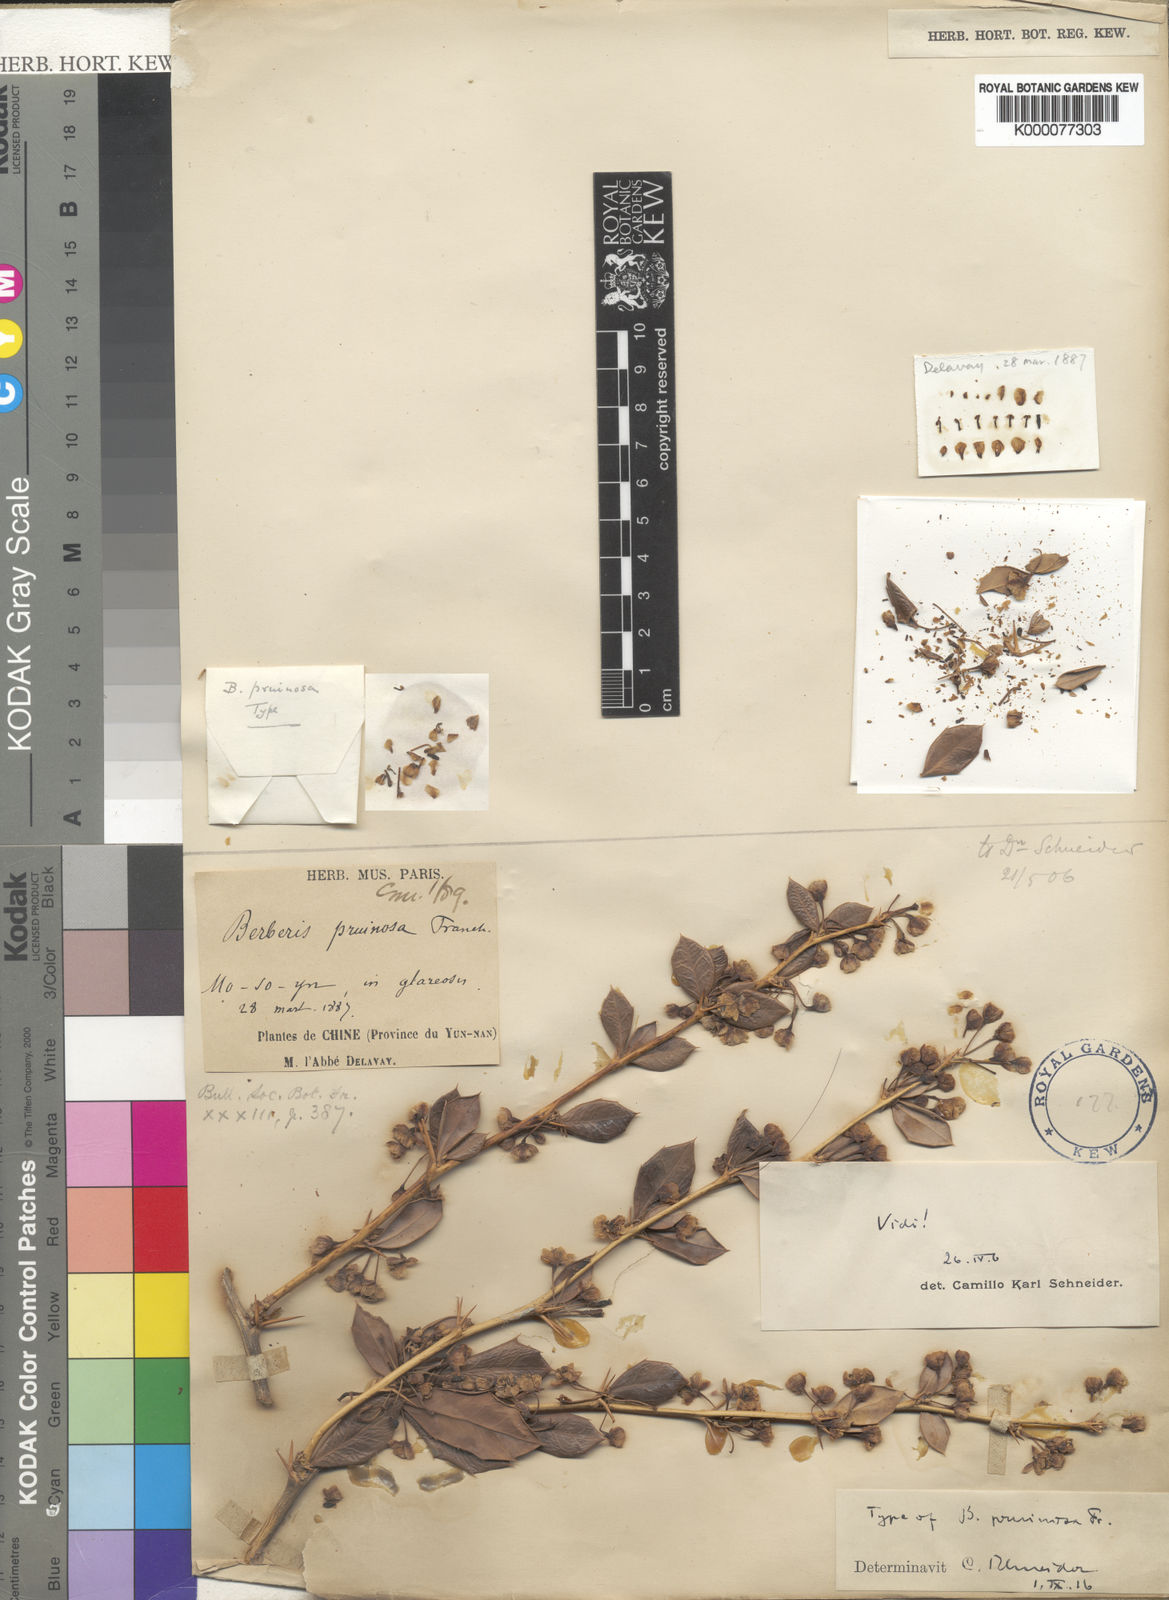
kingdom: Plantae
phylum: Tracheophyta
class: Magnoliopsida
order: Ranunculales
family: Berberidaceae
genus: Berberis
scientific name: Berberis pruinosa
